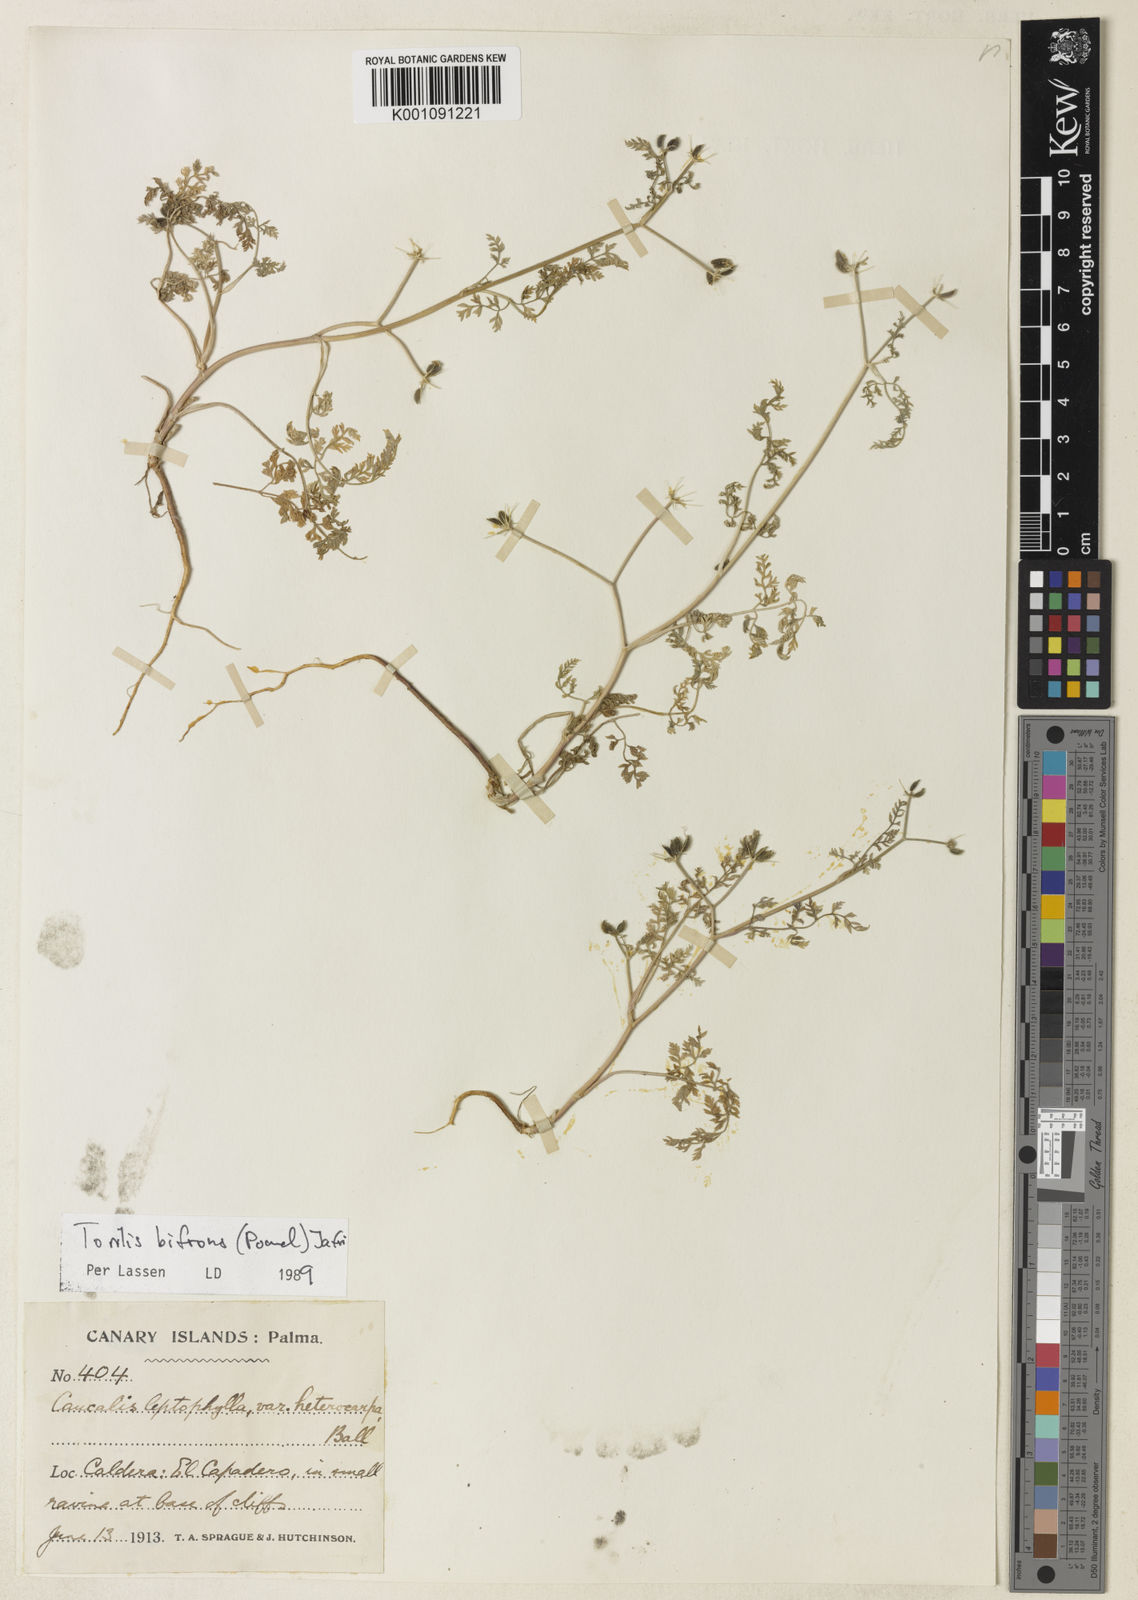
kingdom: Plantae
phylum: Tracheophyta
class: Magnoliopsida
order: Apiales
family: Apiaceae
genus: Torilis
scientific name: Torilis elongata
